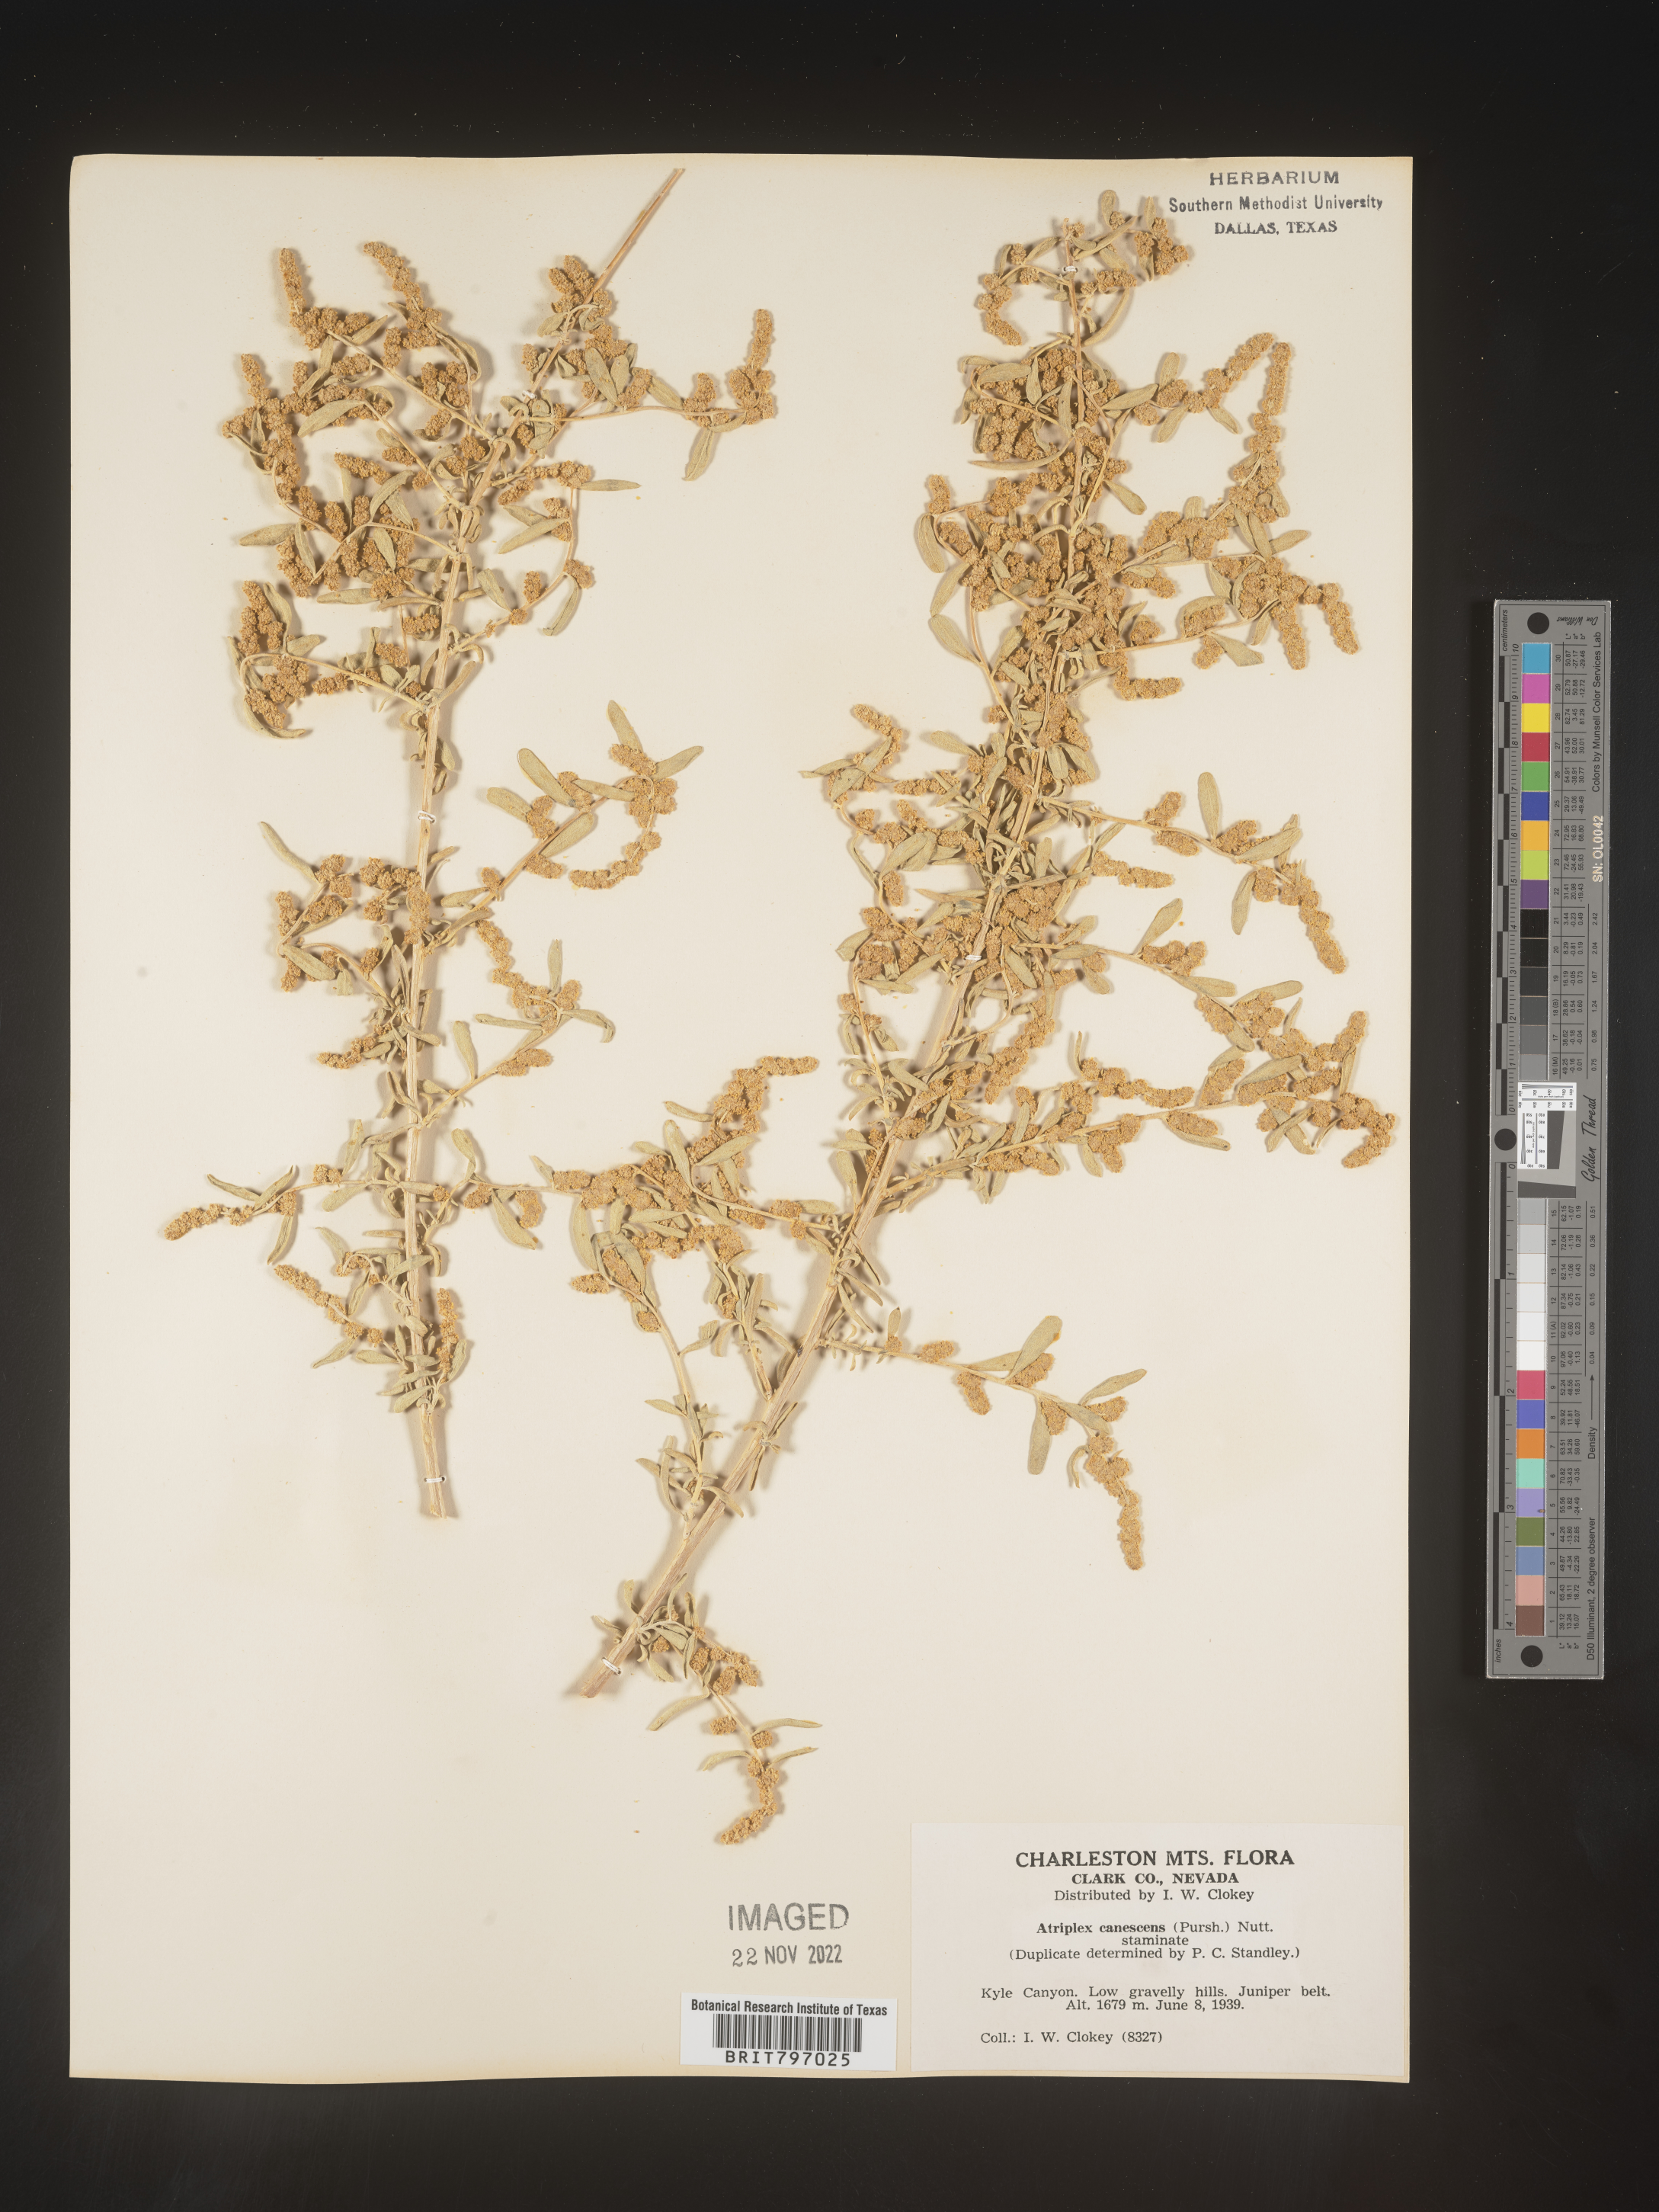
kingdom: Plantae
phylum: Tracheophyta
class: Magnoliopsida
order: Caryophyllales
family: Amaranthaceae
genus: Atriplex
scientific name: Atriplex canescens
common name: Four-wing saltbush
